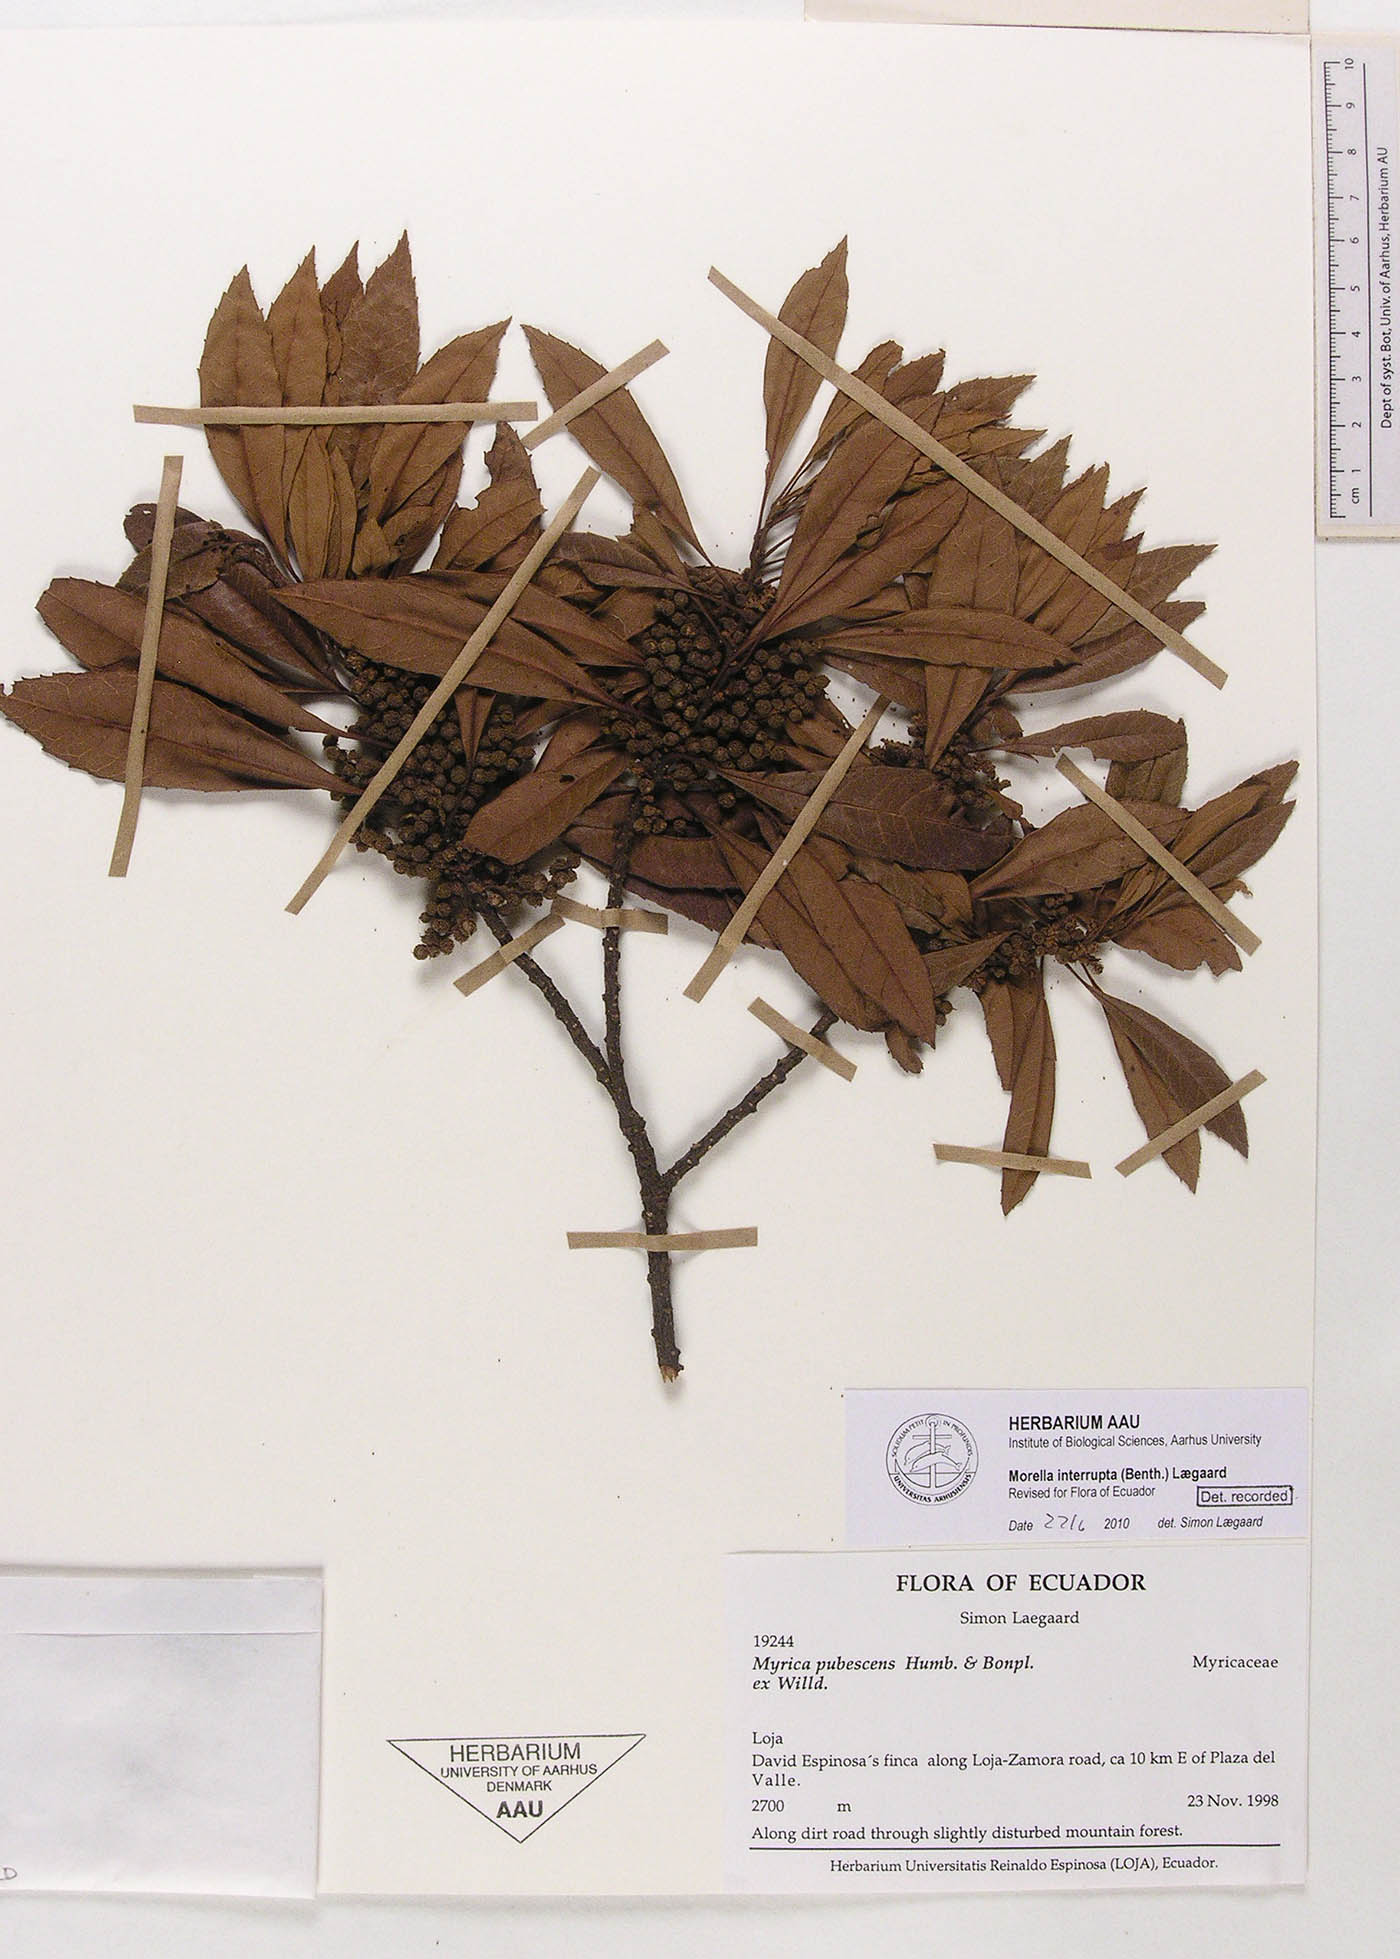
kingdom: Plantae
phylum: Tracheophyta
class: Magnoliopsida
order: Fagales
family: Myricaceae
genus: Morella
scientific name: Morella interrupta
